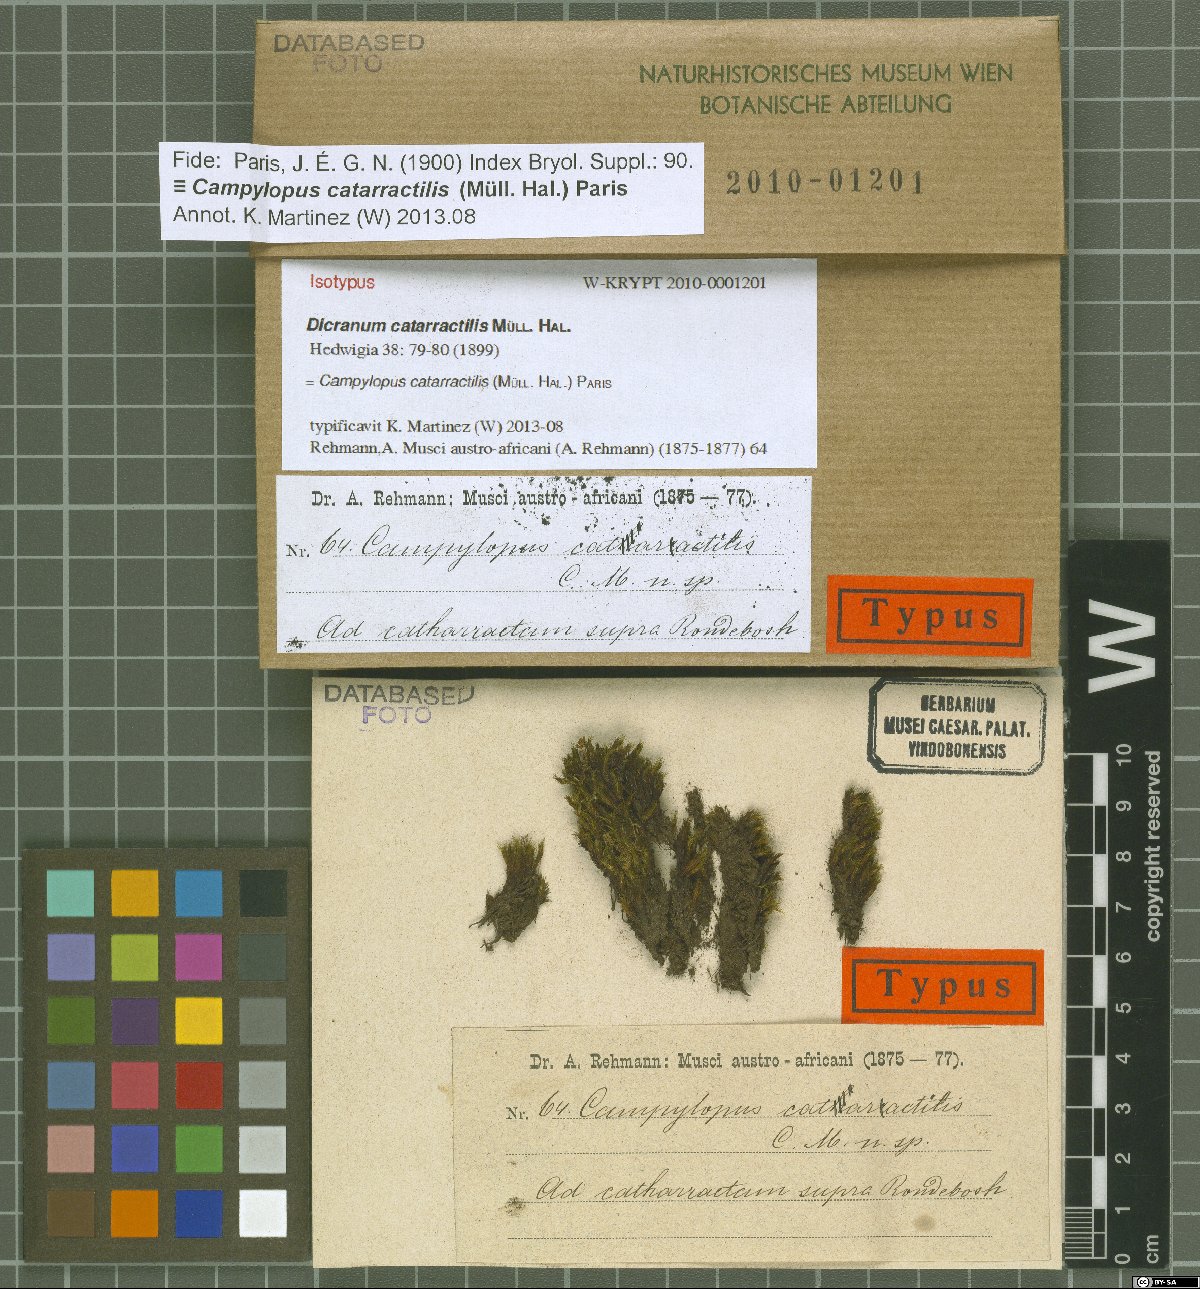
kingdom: Plantae
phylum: Bryophyta
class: Bryopsida
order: Dicranales
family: Leucobryaceae
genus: Campylopus
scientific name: Campylopus catarractilis
